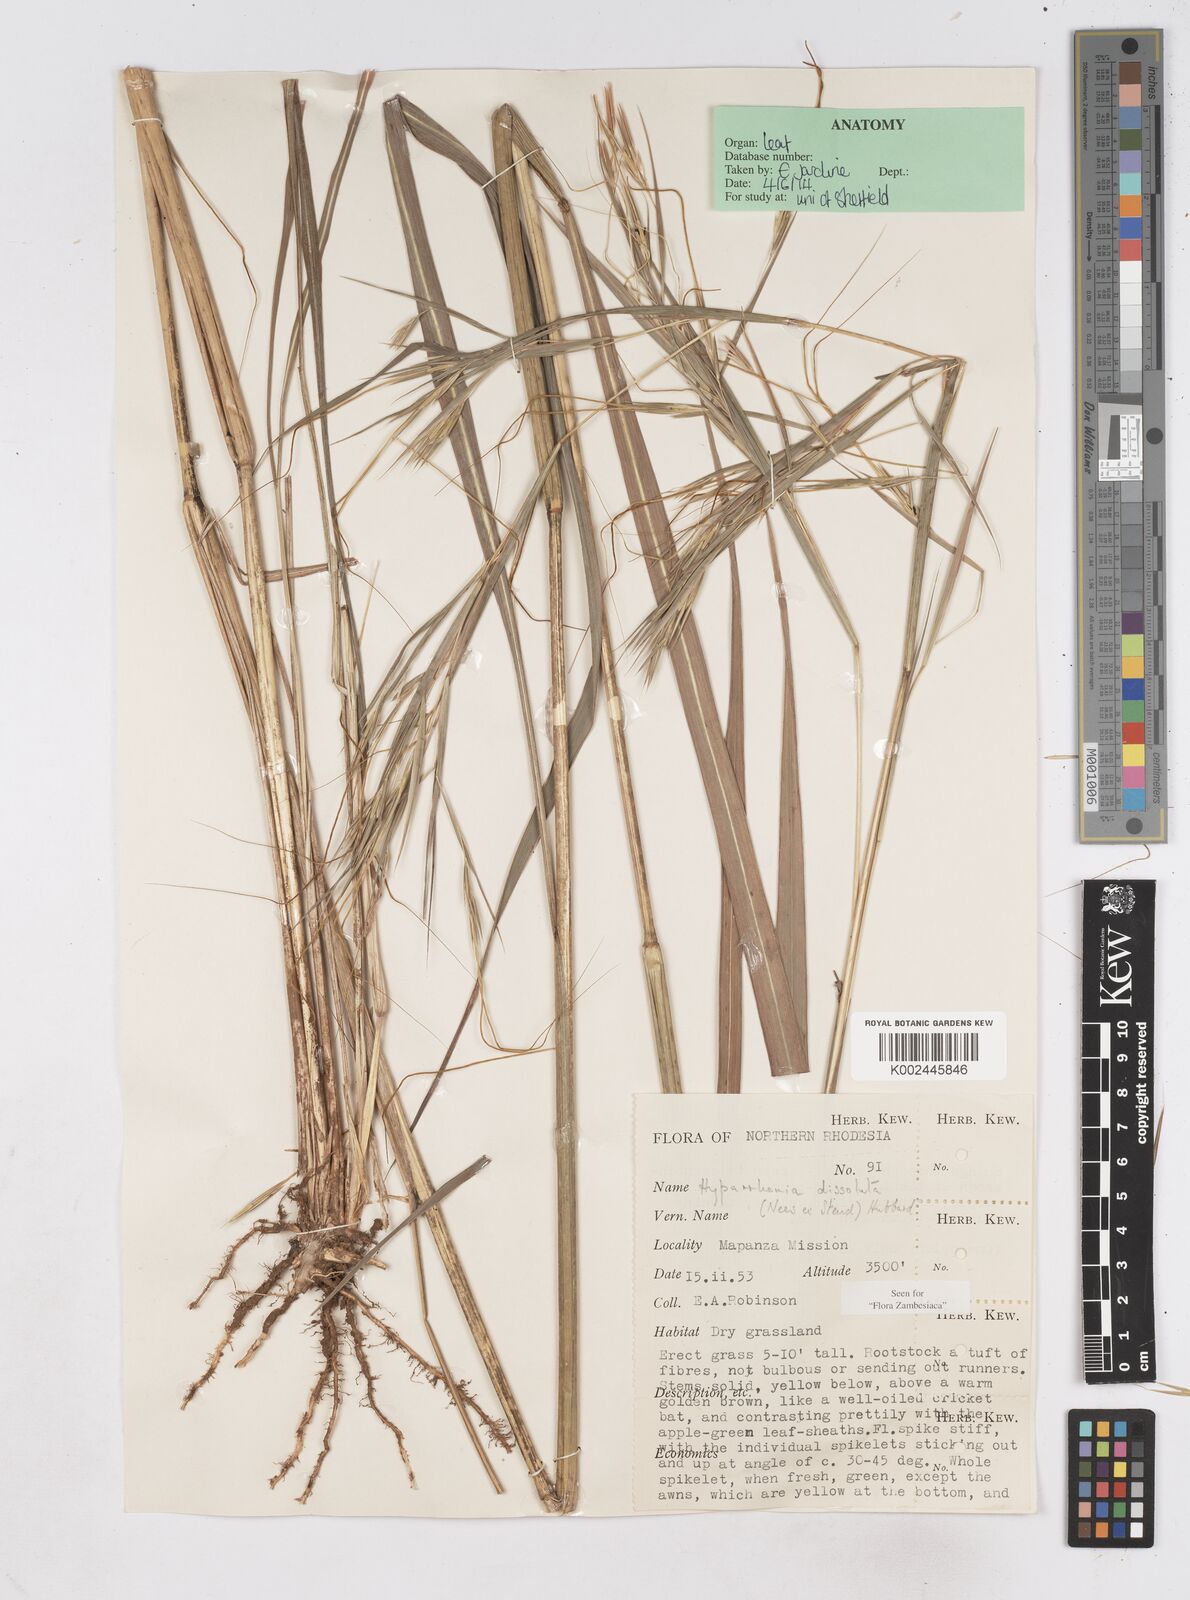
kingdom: Plantae
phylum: Tracheophyta
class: Liliopsida
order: Poales
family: Poaceae
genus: Hyperthelia
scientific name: Hyperthelia dissoluta
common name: Yellow thatching grass
